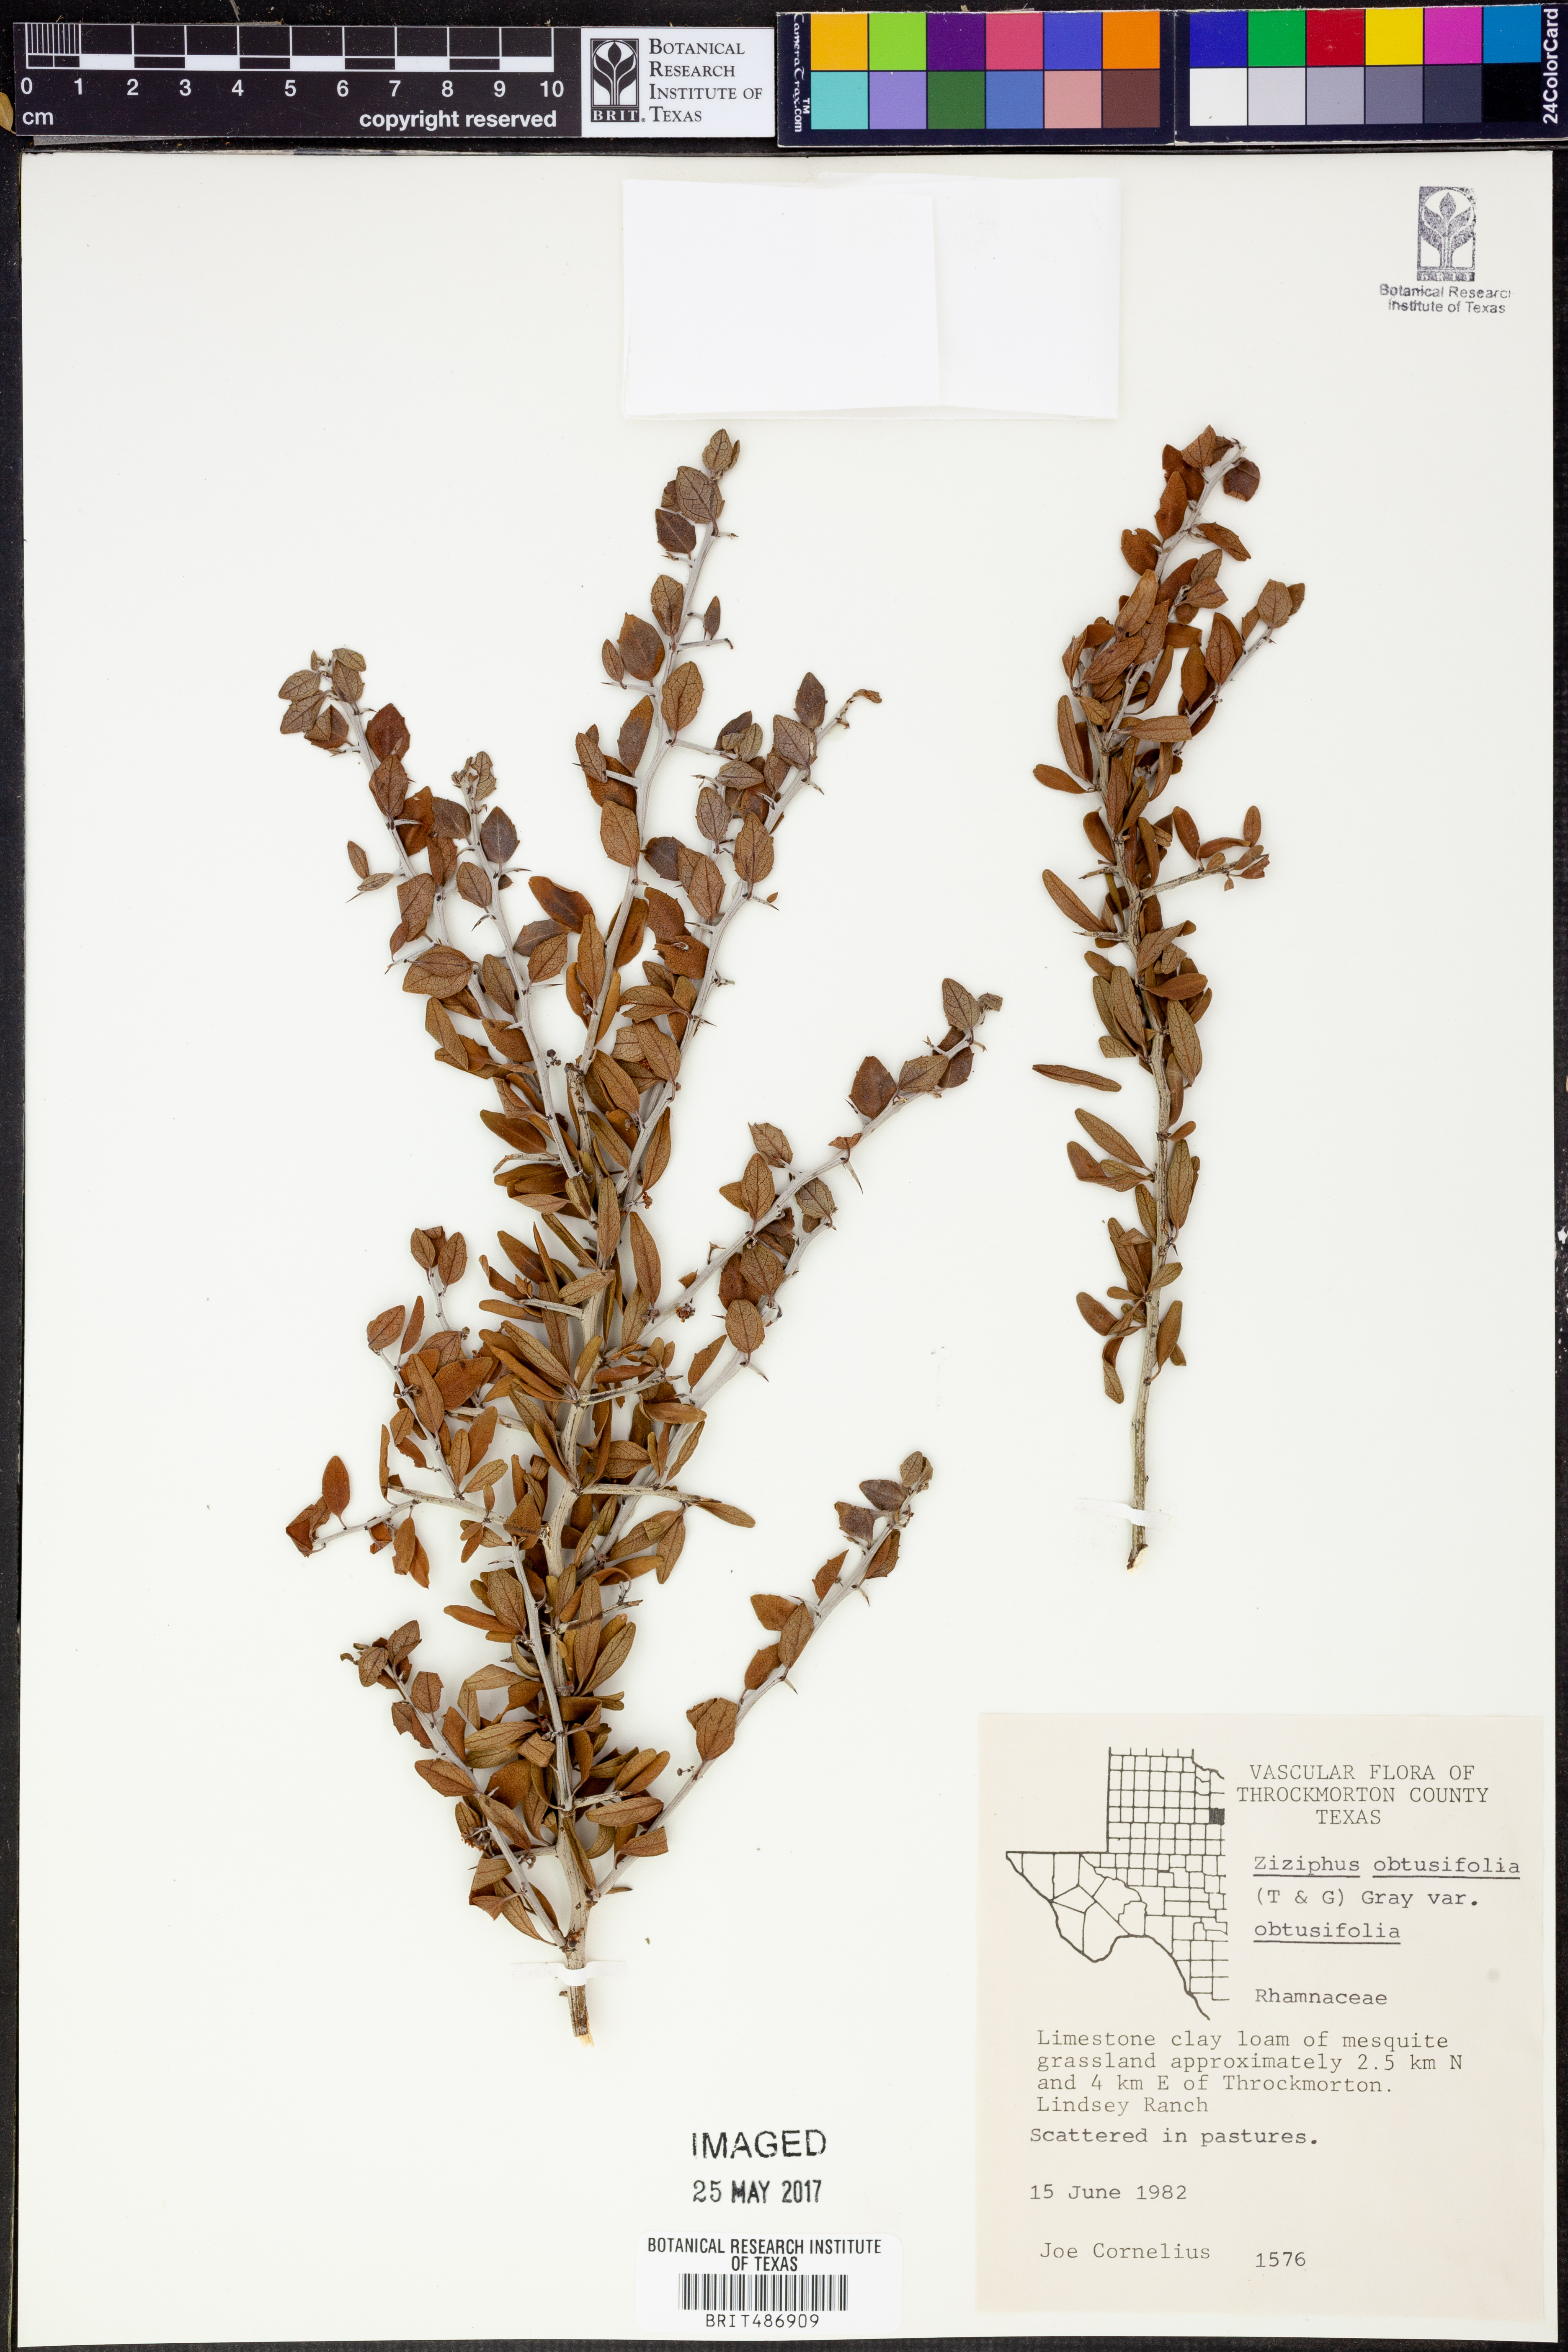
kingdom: Plantae
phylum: Tracheophyta
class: Magnoliopsida
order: Rosales
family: Rhamnaceae
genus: Sarcomphalus
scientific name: Sarcomphalus obtusifolius
